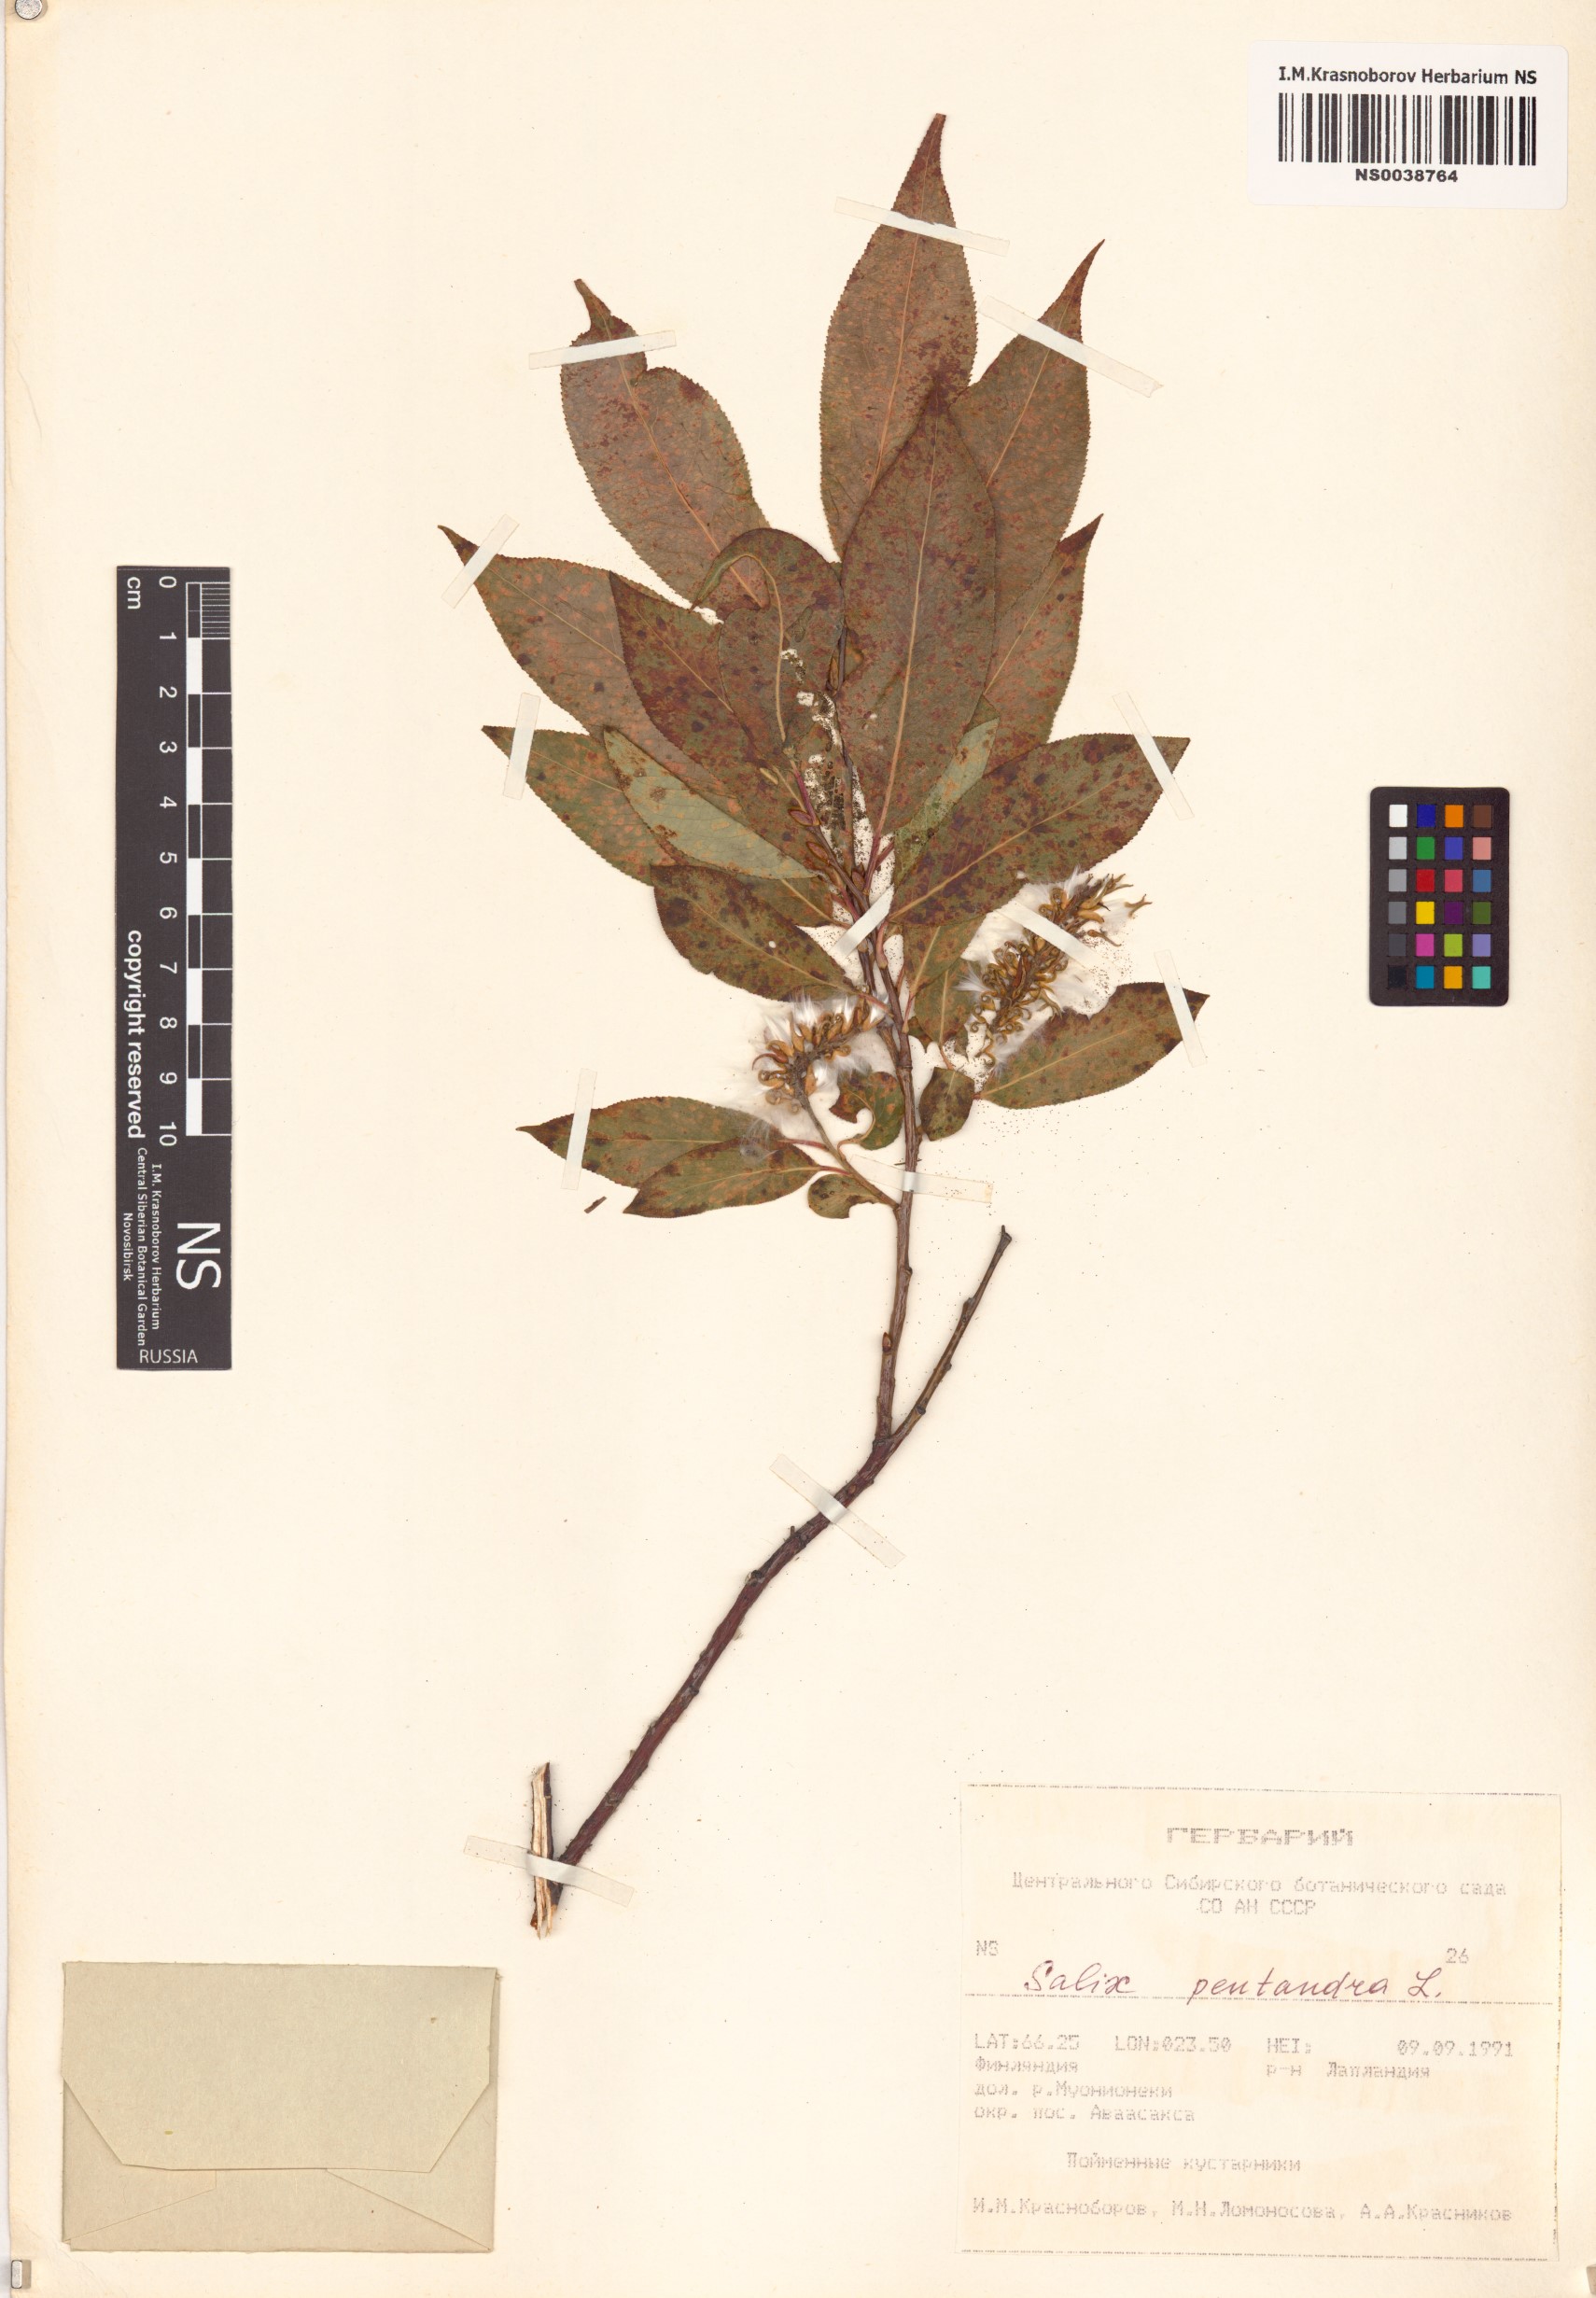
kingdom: Plantae
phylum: Tracheophyta
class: Magnoliopsida
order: Malpighiales
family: Salicaceae
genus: Salix
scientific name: Salix pentandra
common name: Bay willow
